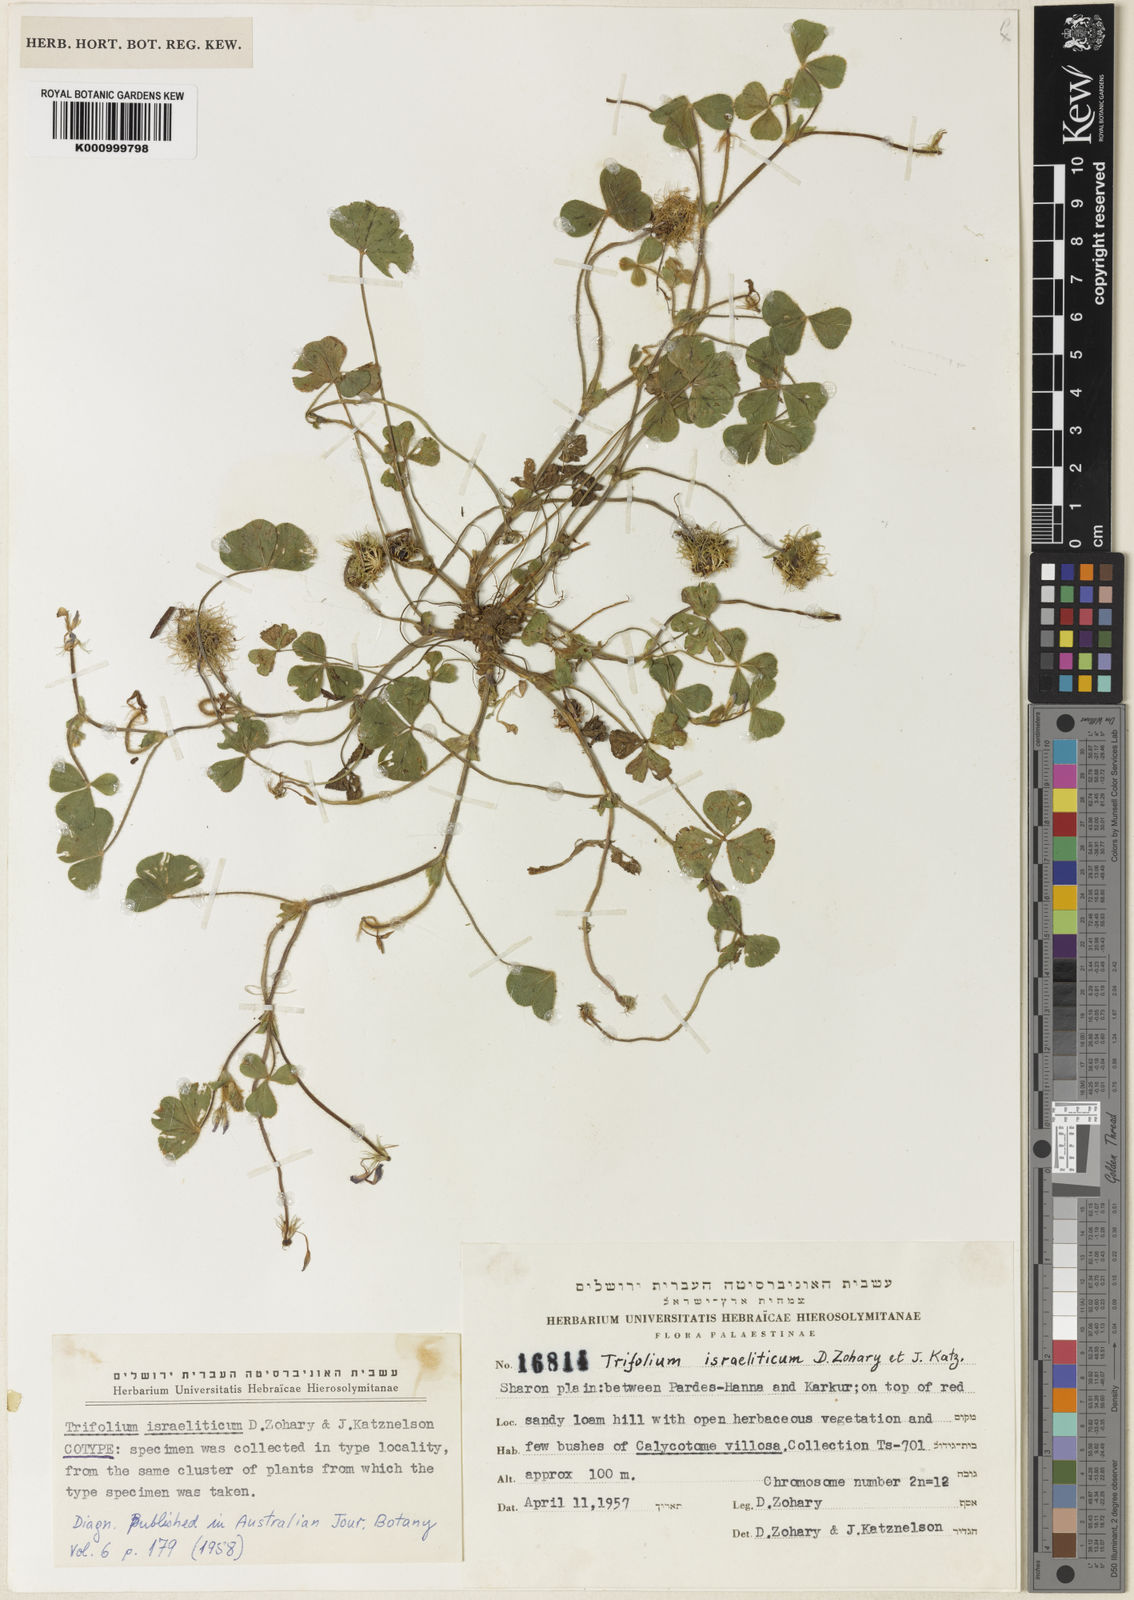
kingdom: Plantae
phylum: Tracheophyta
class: Magnoliopsida
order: Fabales
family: Fabaceae
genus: Trifolium
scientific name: Trifolium israeliticum
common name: Israel clover
